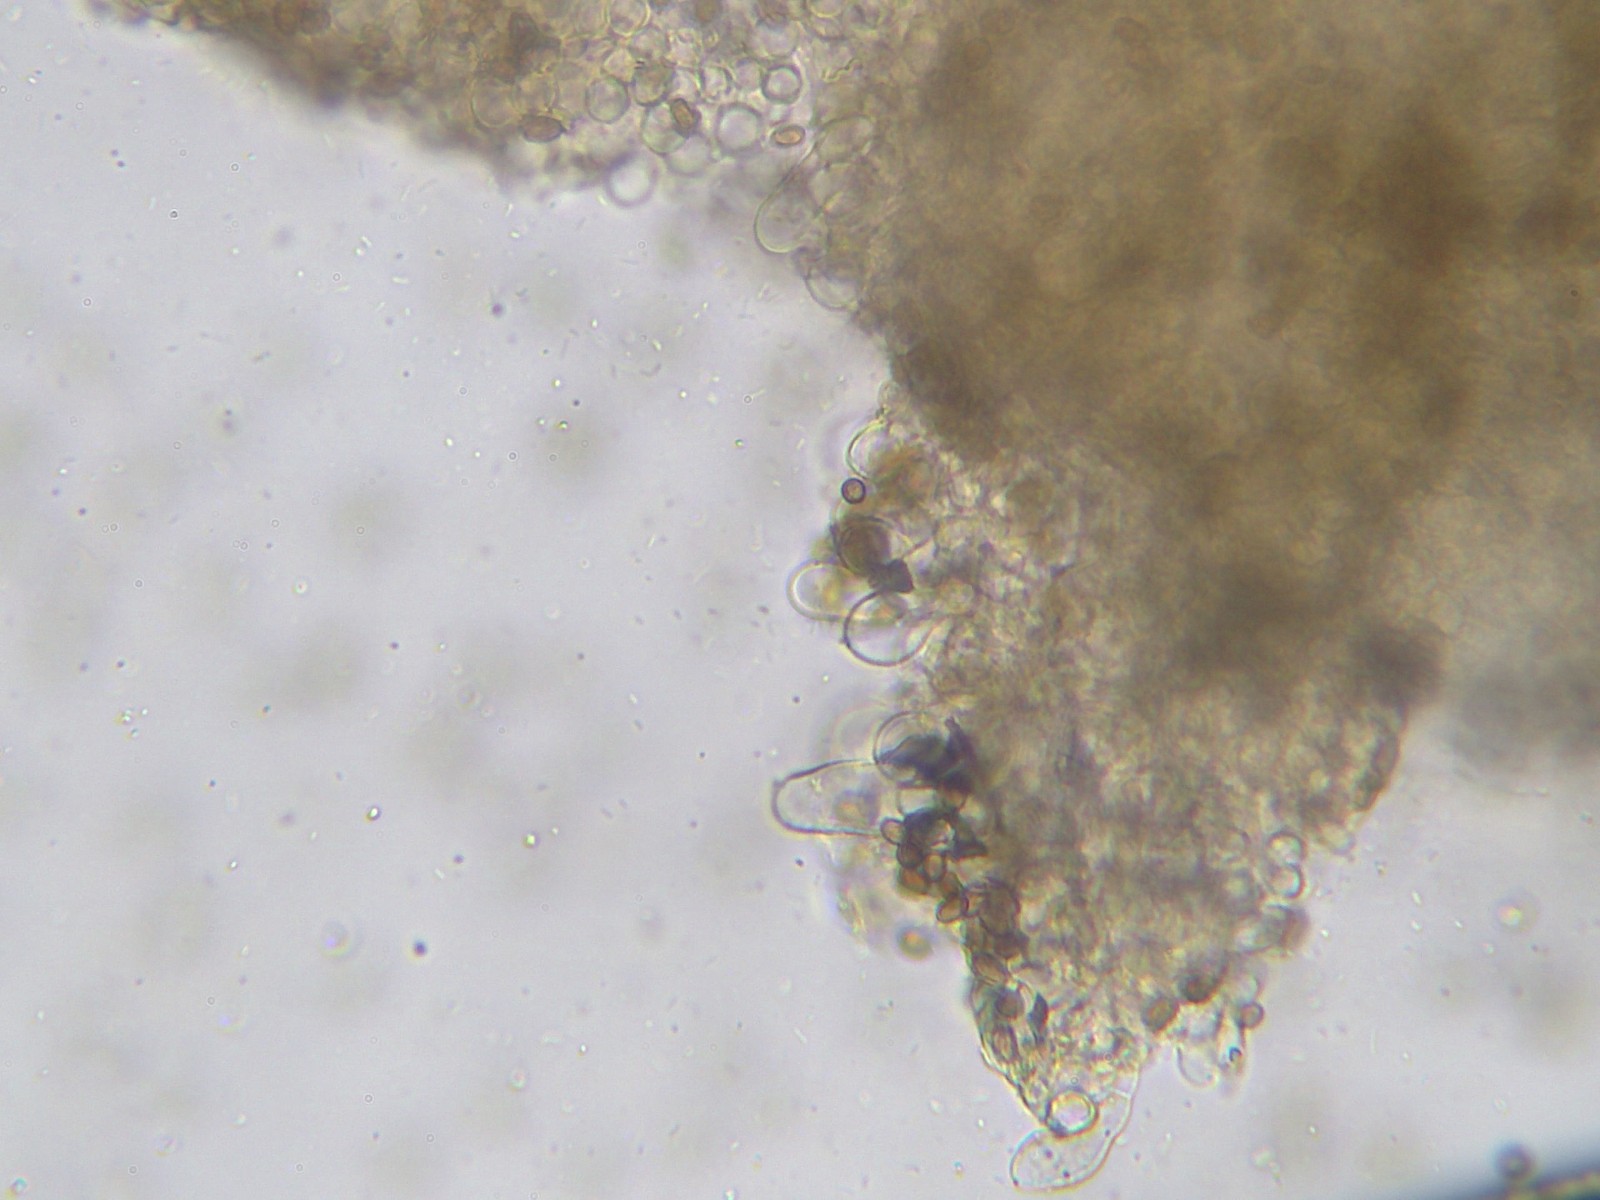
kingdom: Fungi
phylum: Basidiomycota
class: Agaricomycetes
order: Agaricales
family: Psathyrellaceae
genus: Psathyrella
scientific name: Psathyrella piluliformis
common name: lysstokket mørkhat
